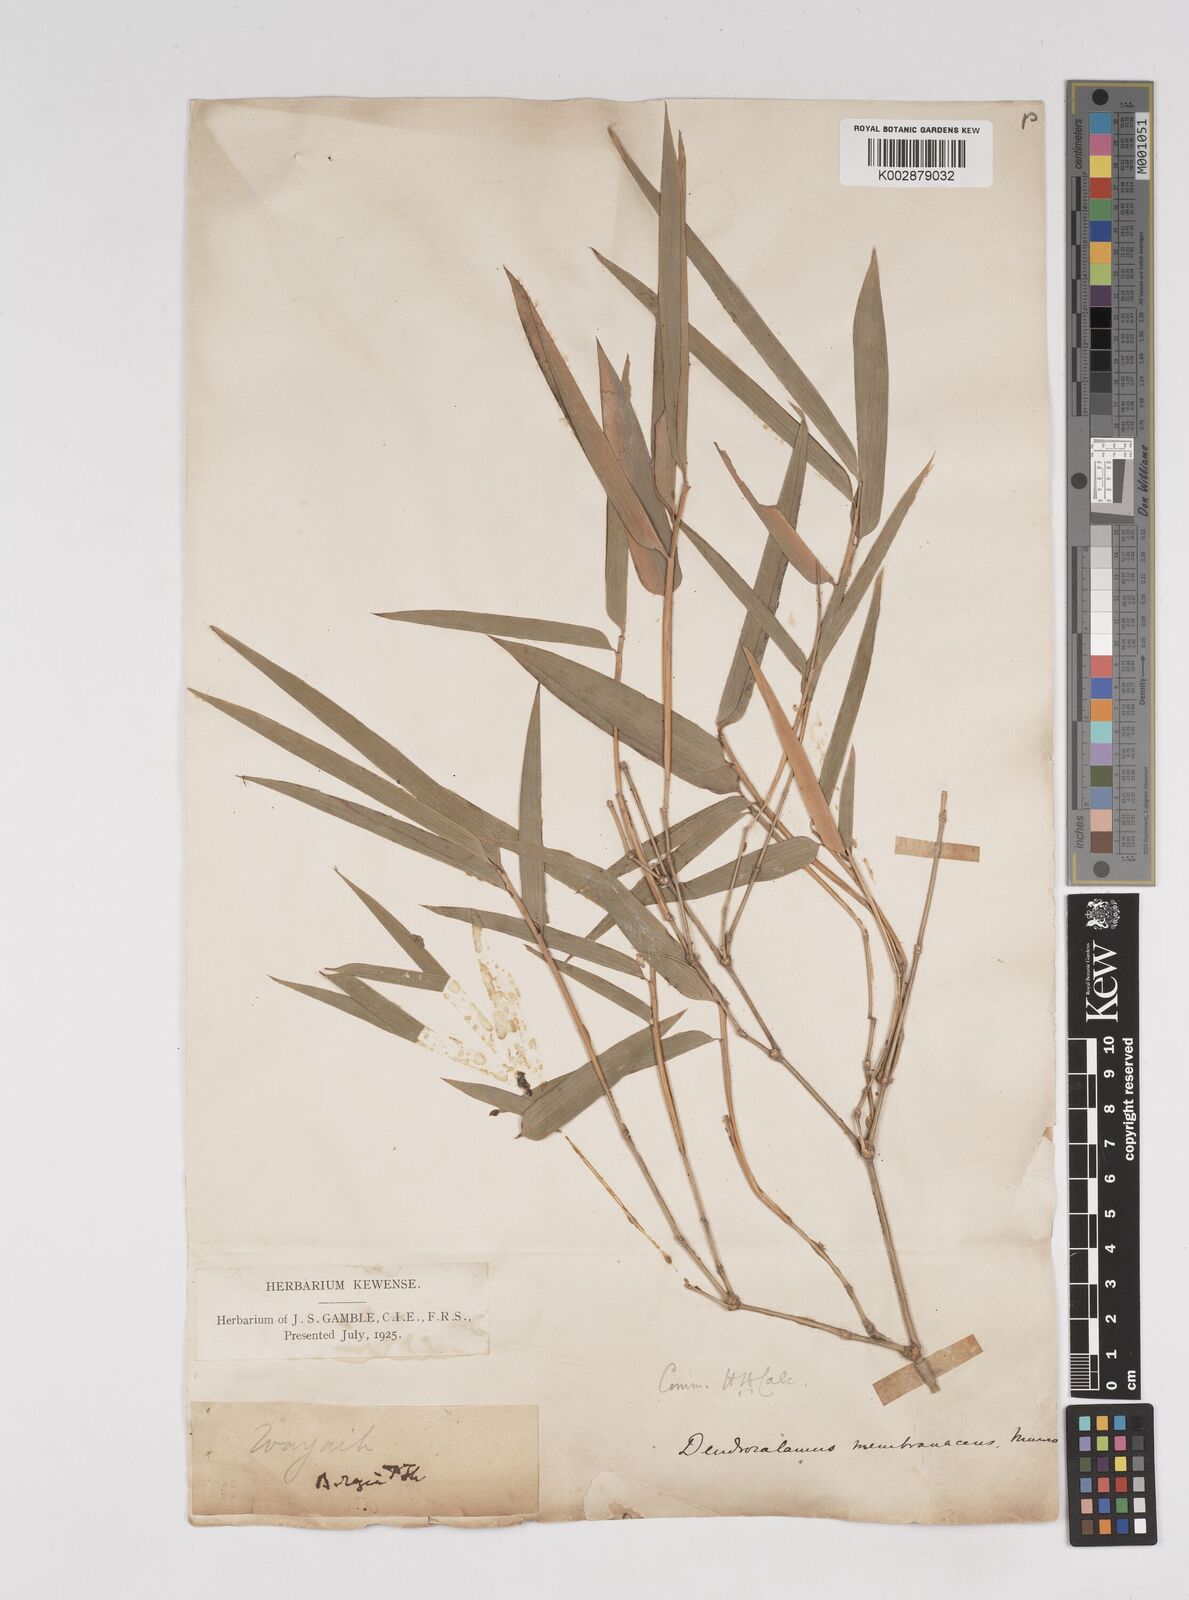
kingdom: Plantae
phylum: Tracheophyta
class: Liliopsida
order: Poales
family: Poaceae
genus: Dendrocalamus
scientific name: Dendrocalamus membranaceus
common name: White bamboo
